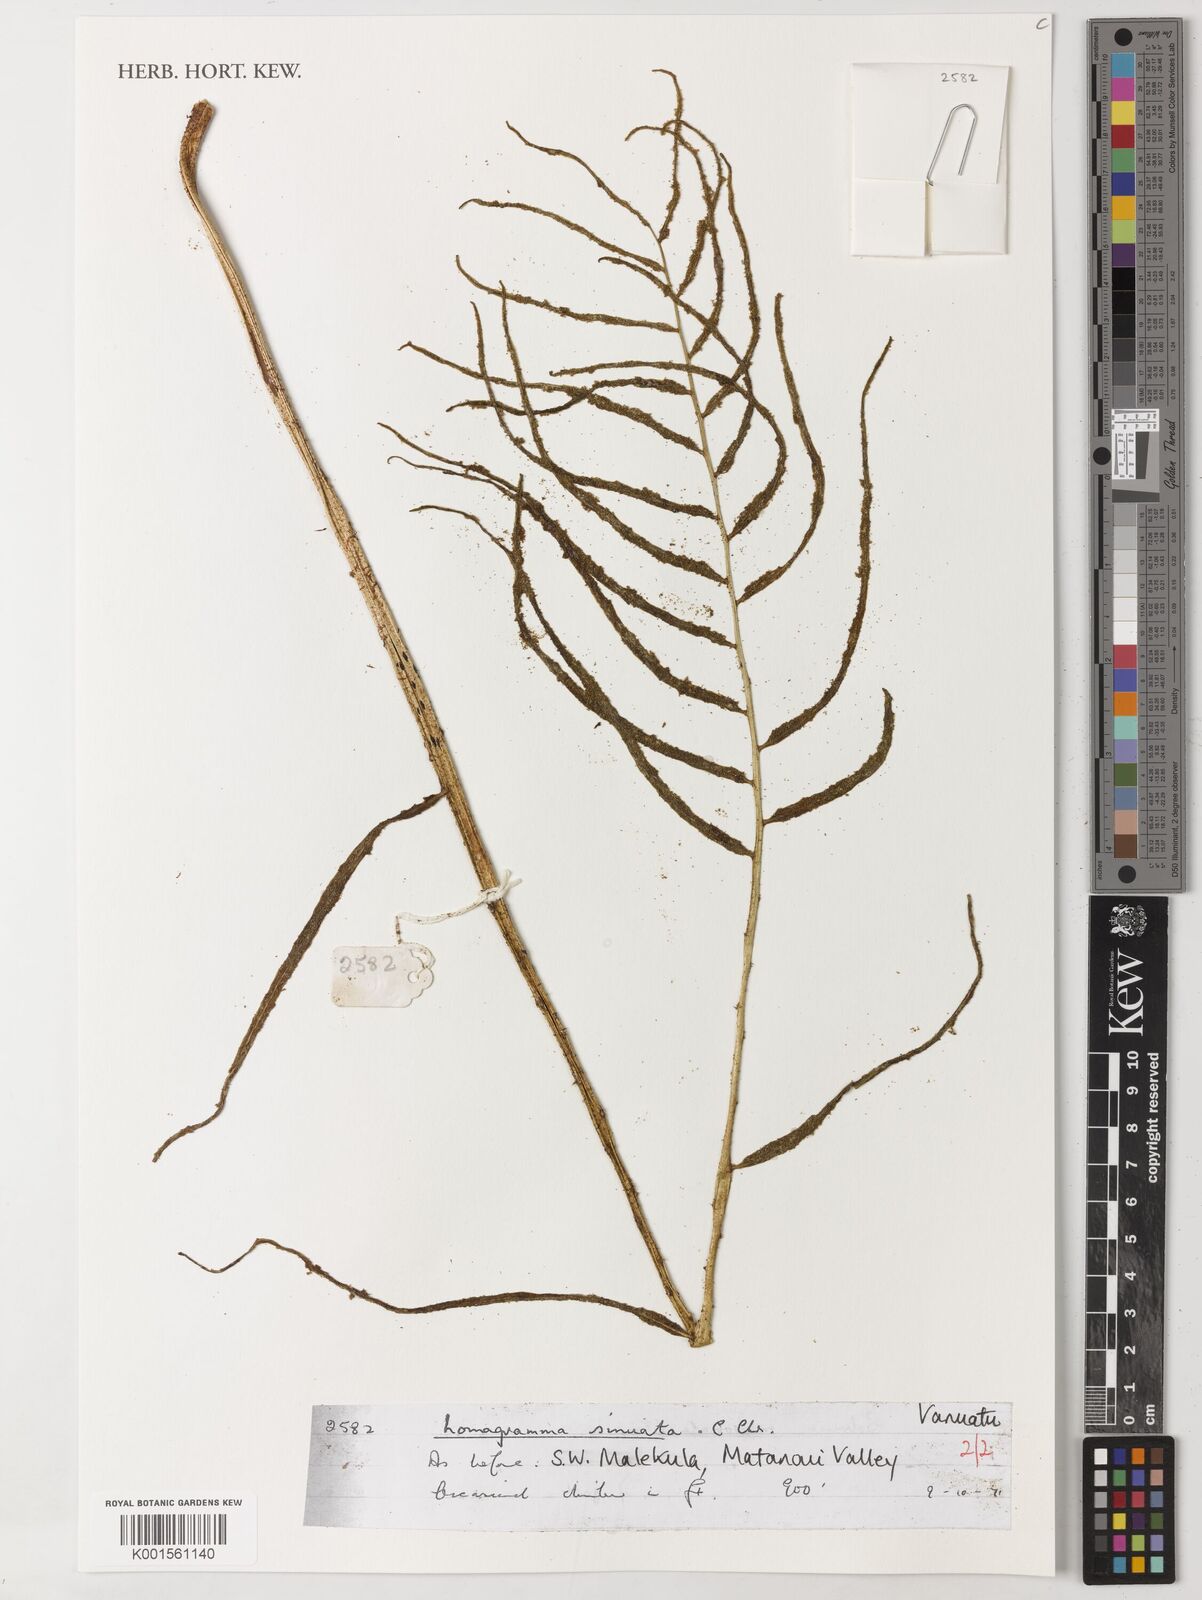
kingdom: Plantae
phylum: Tracheophyta
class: Polypodiopsida
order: Polypodiales
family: Dryopteridaceae
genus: Lomagramma
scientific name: Lomagramma sinuata
